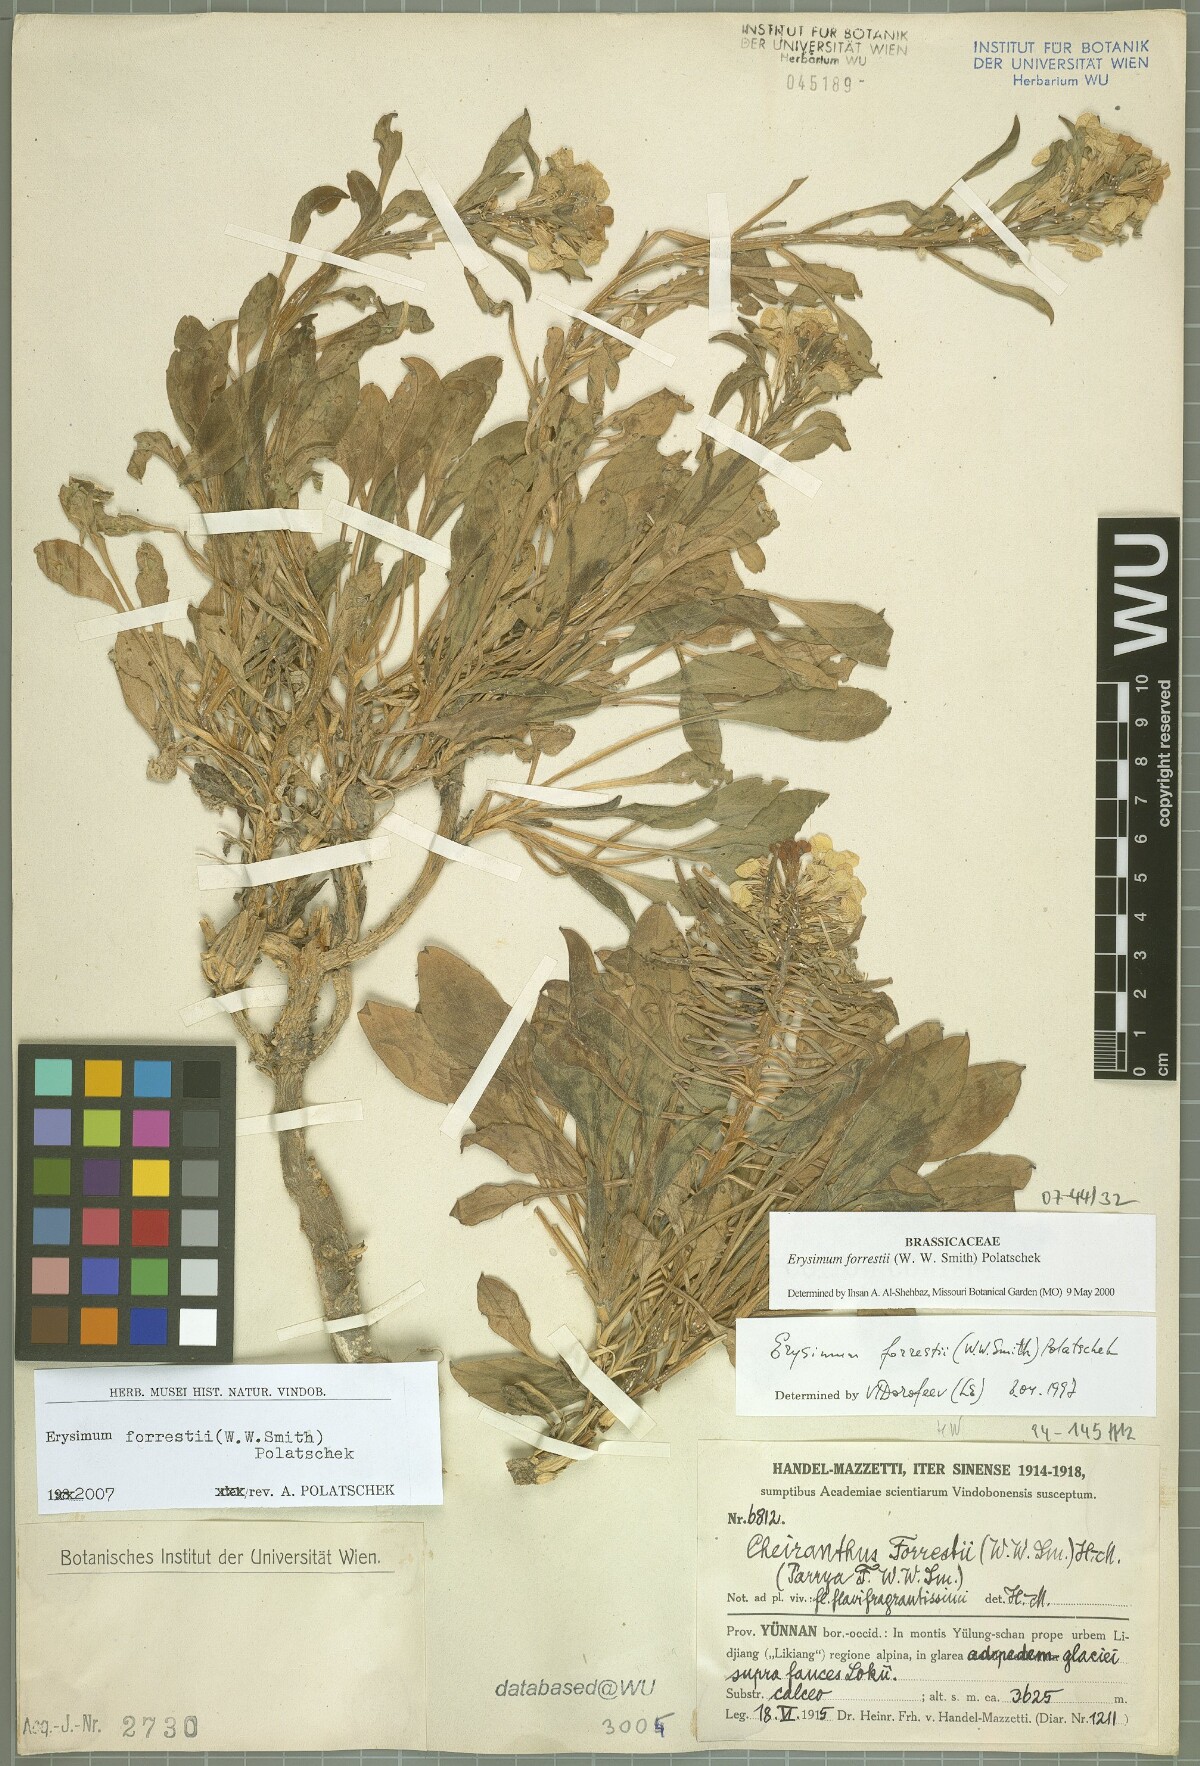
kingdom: Plantae
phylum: Tracheophyta
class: Magnoliopsida
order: Brassicales
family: Brassicaceae
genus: Erysimum
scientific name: Erysimum forrestii
